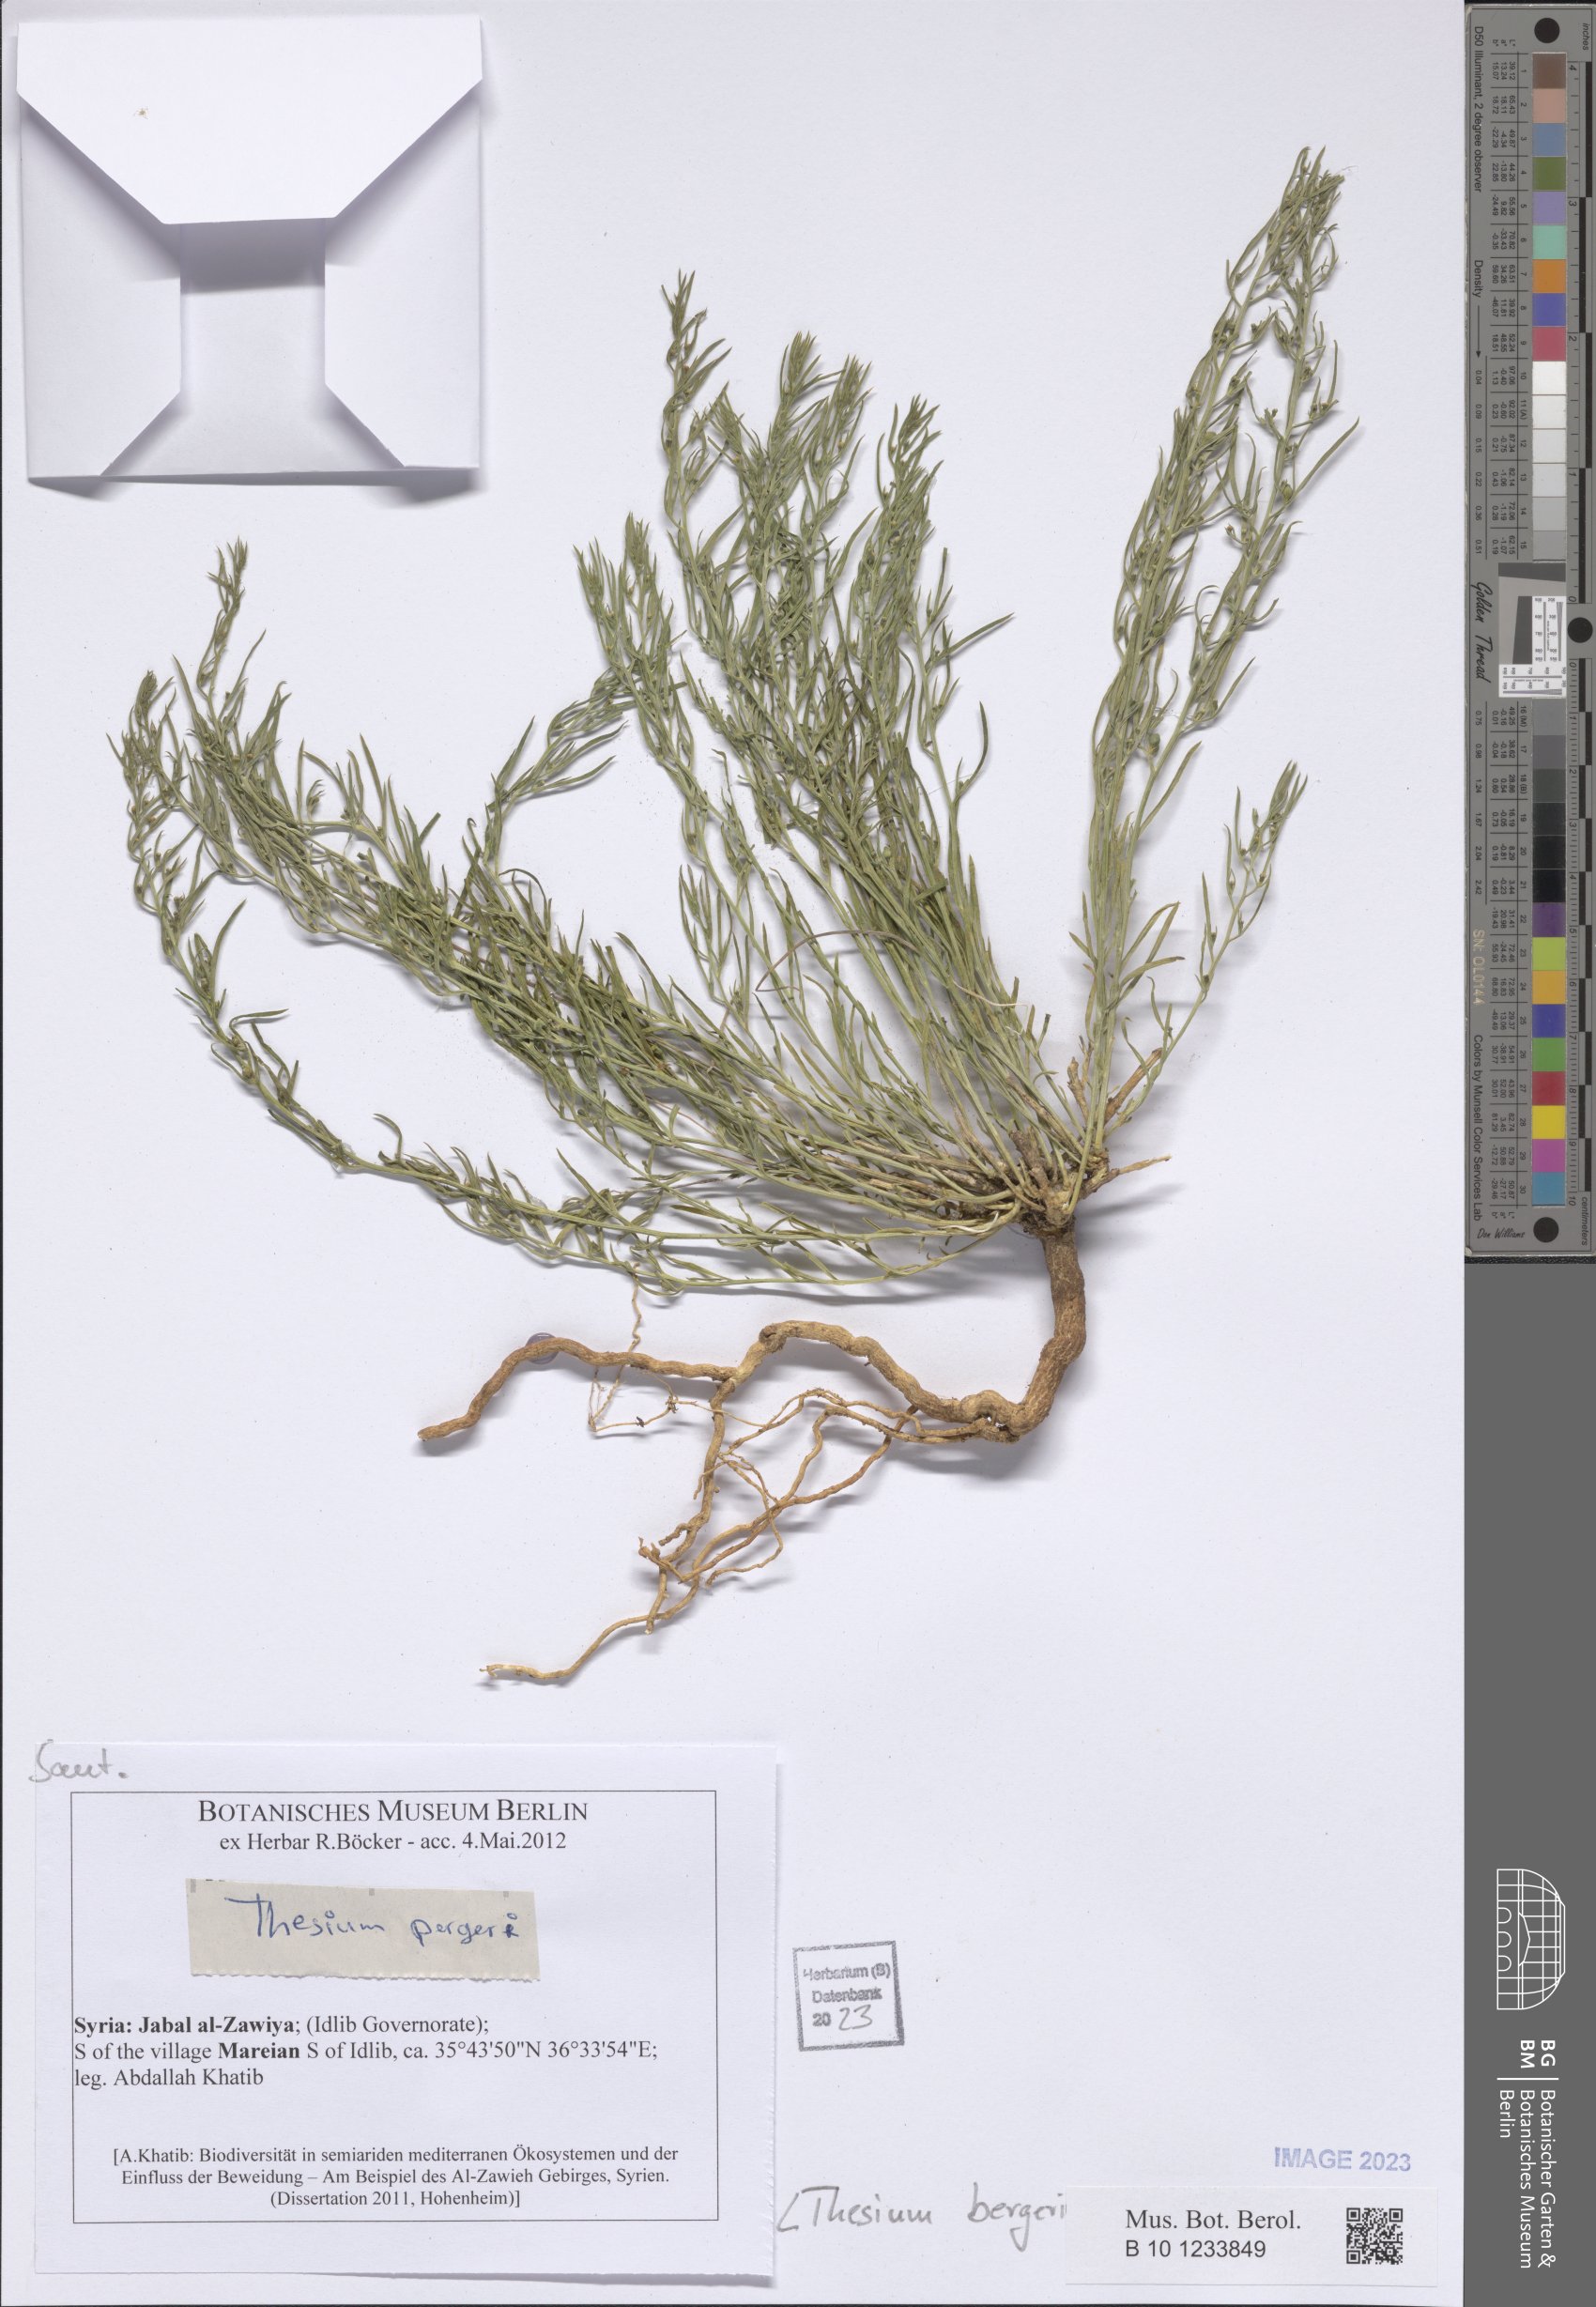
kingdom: Plantae
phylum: Tracheophyta
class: Magnoliopsida
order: Santalales
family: Thesiaceae
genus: Thesium
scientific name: Thesium bergeri
